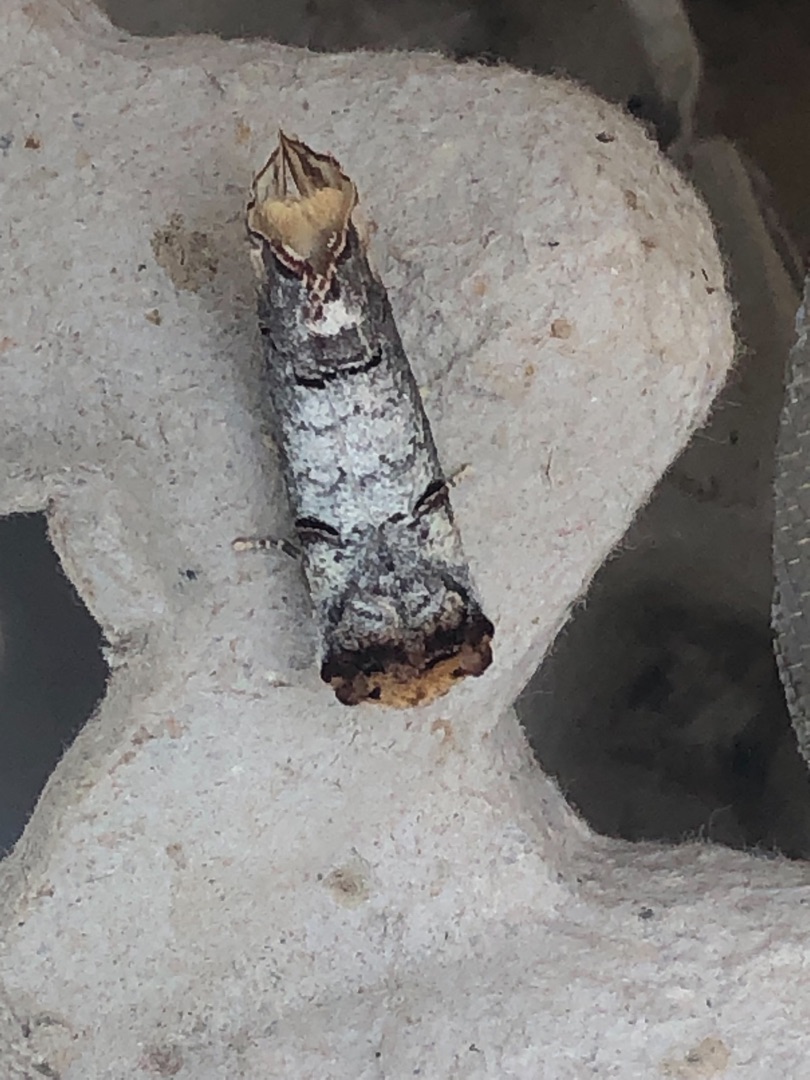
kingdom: Animalia
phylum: Arthropoda
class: Insecta
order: Lepidoptera
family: Notodontidae
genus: Phalera
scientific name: Phalera bucephala
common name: Måneplet
